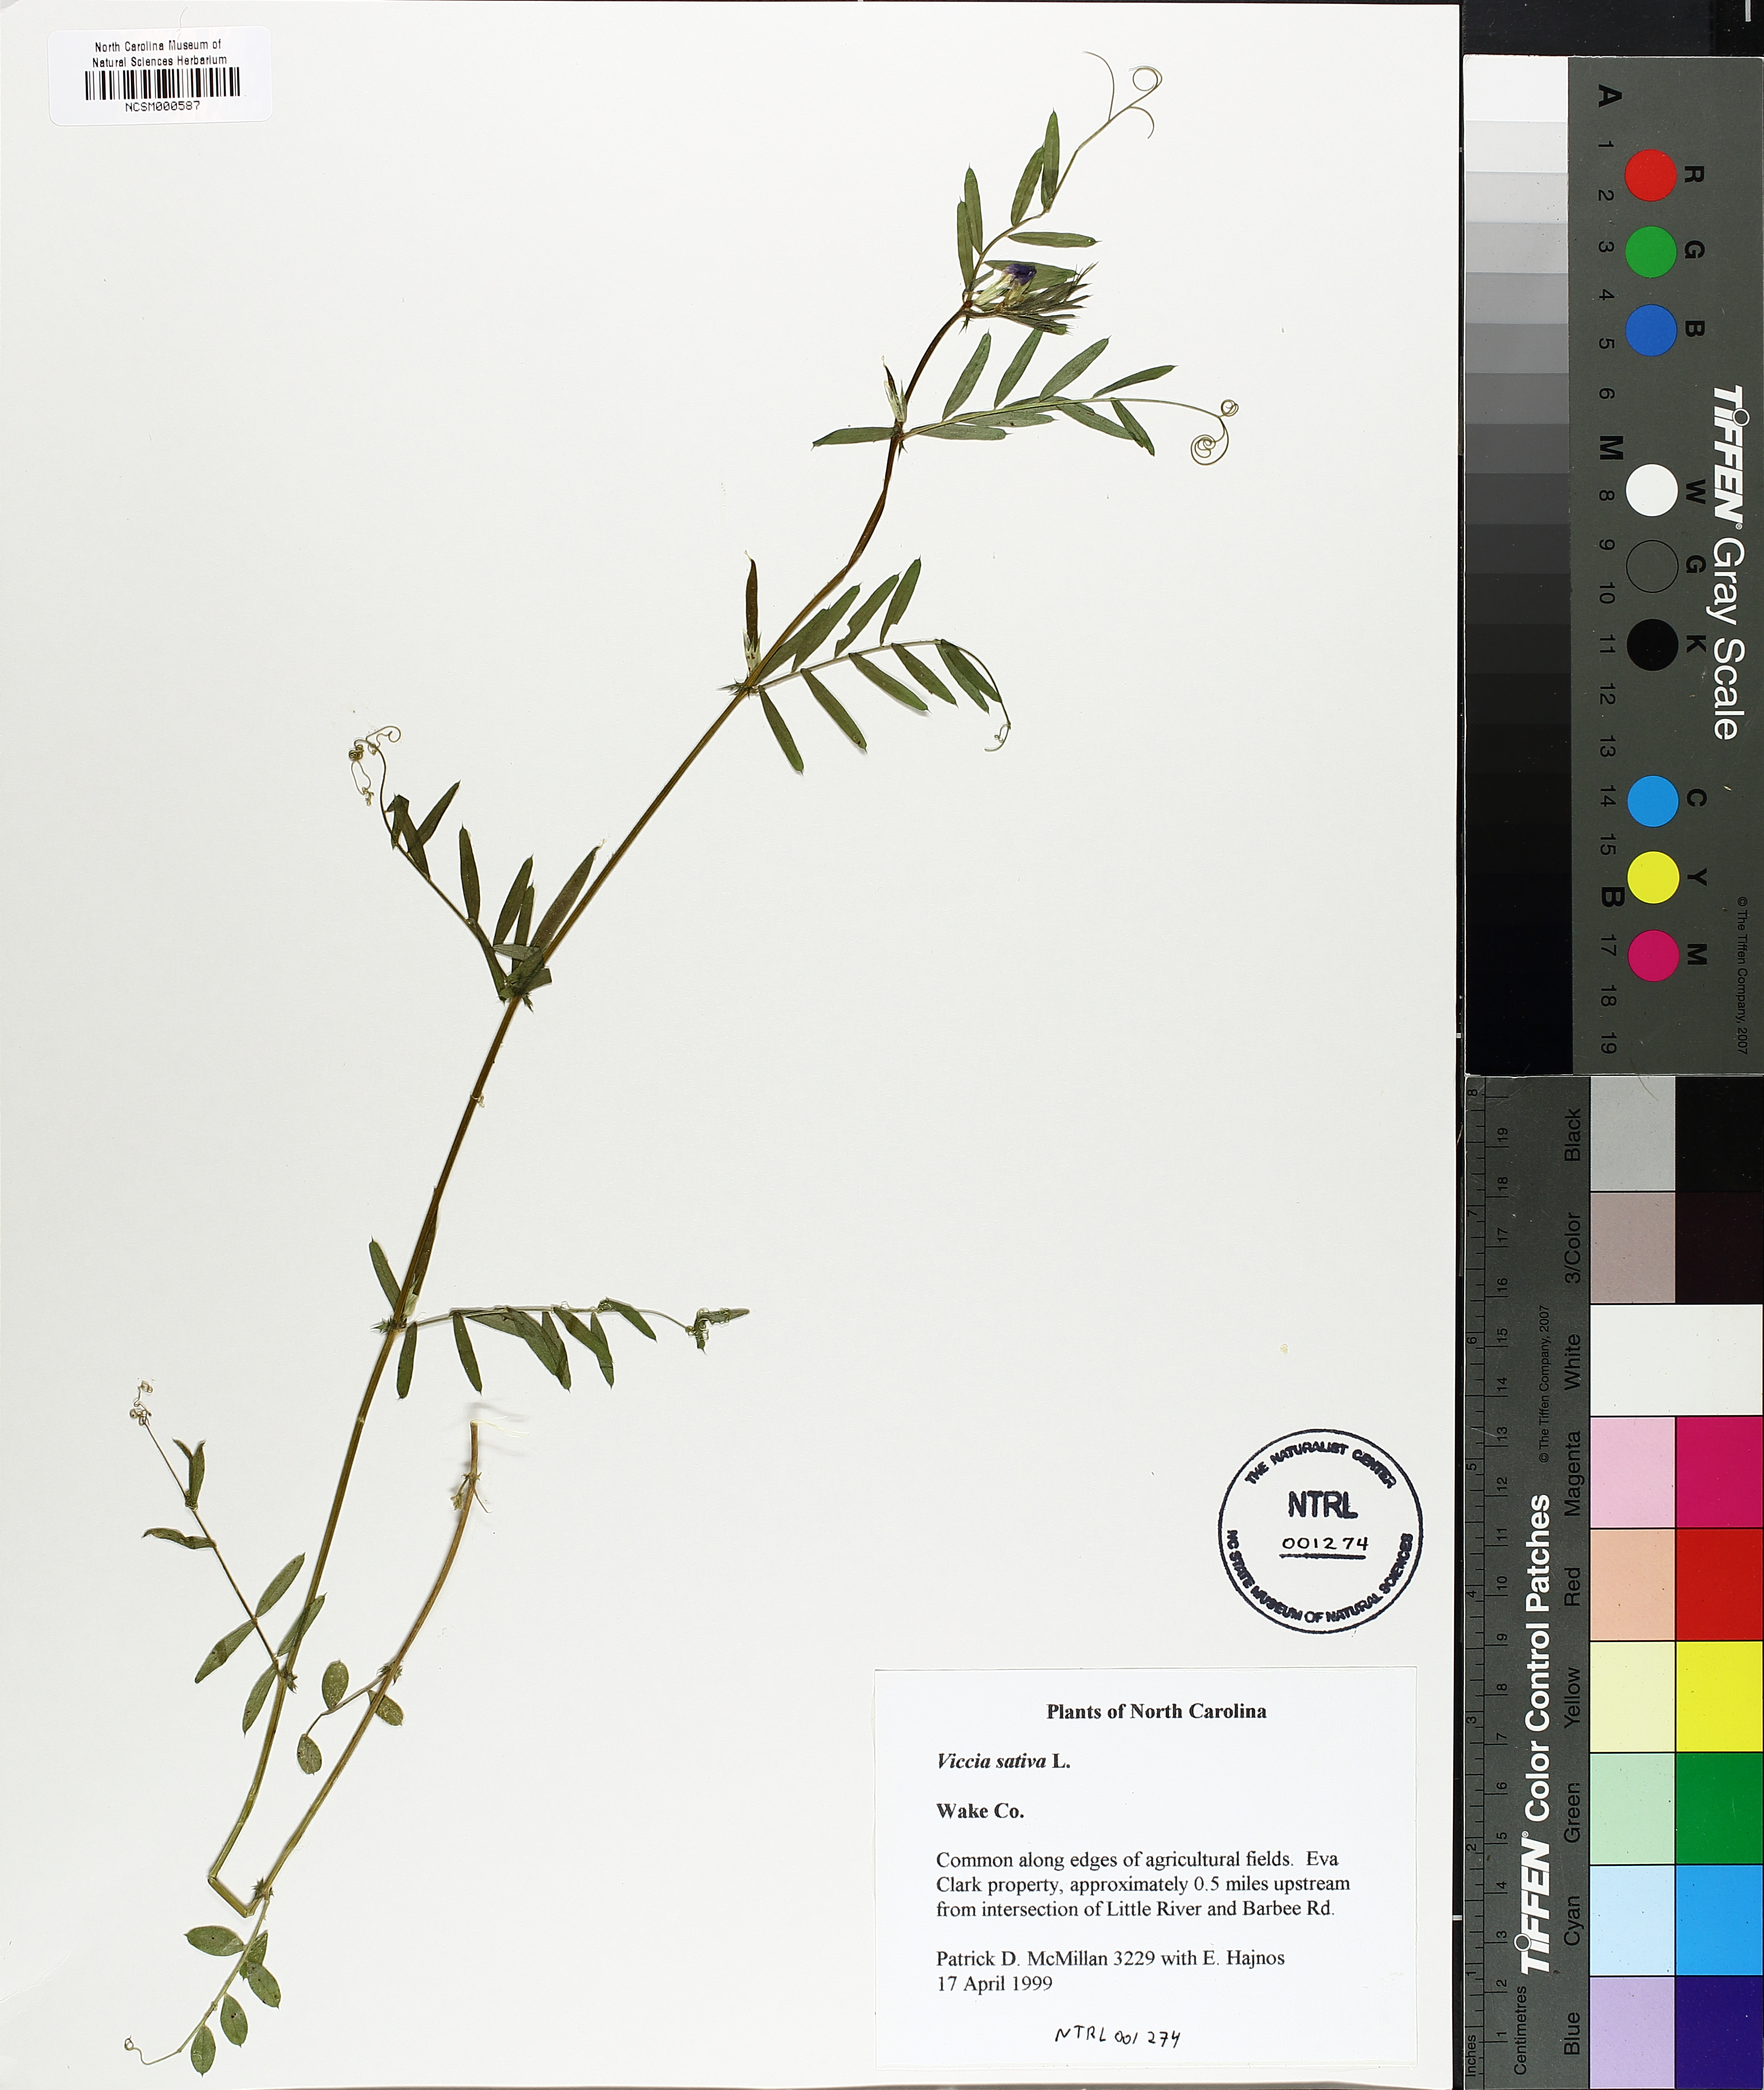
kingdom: Plantae
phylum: Tracheophyta
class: Magnoliopsida
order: Fabales
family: Fabaceae
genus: Vicia
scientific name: Vicia sativa
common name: Garden vetch
